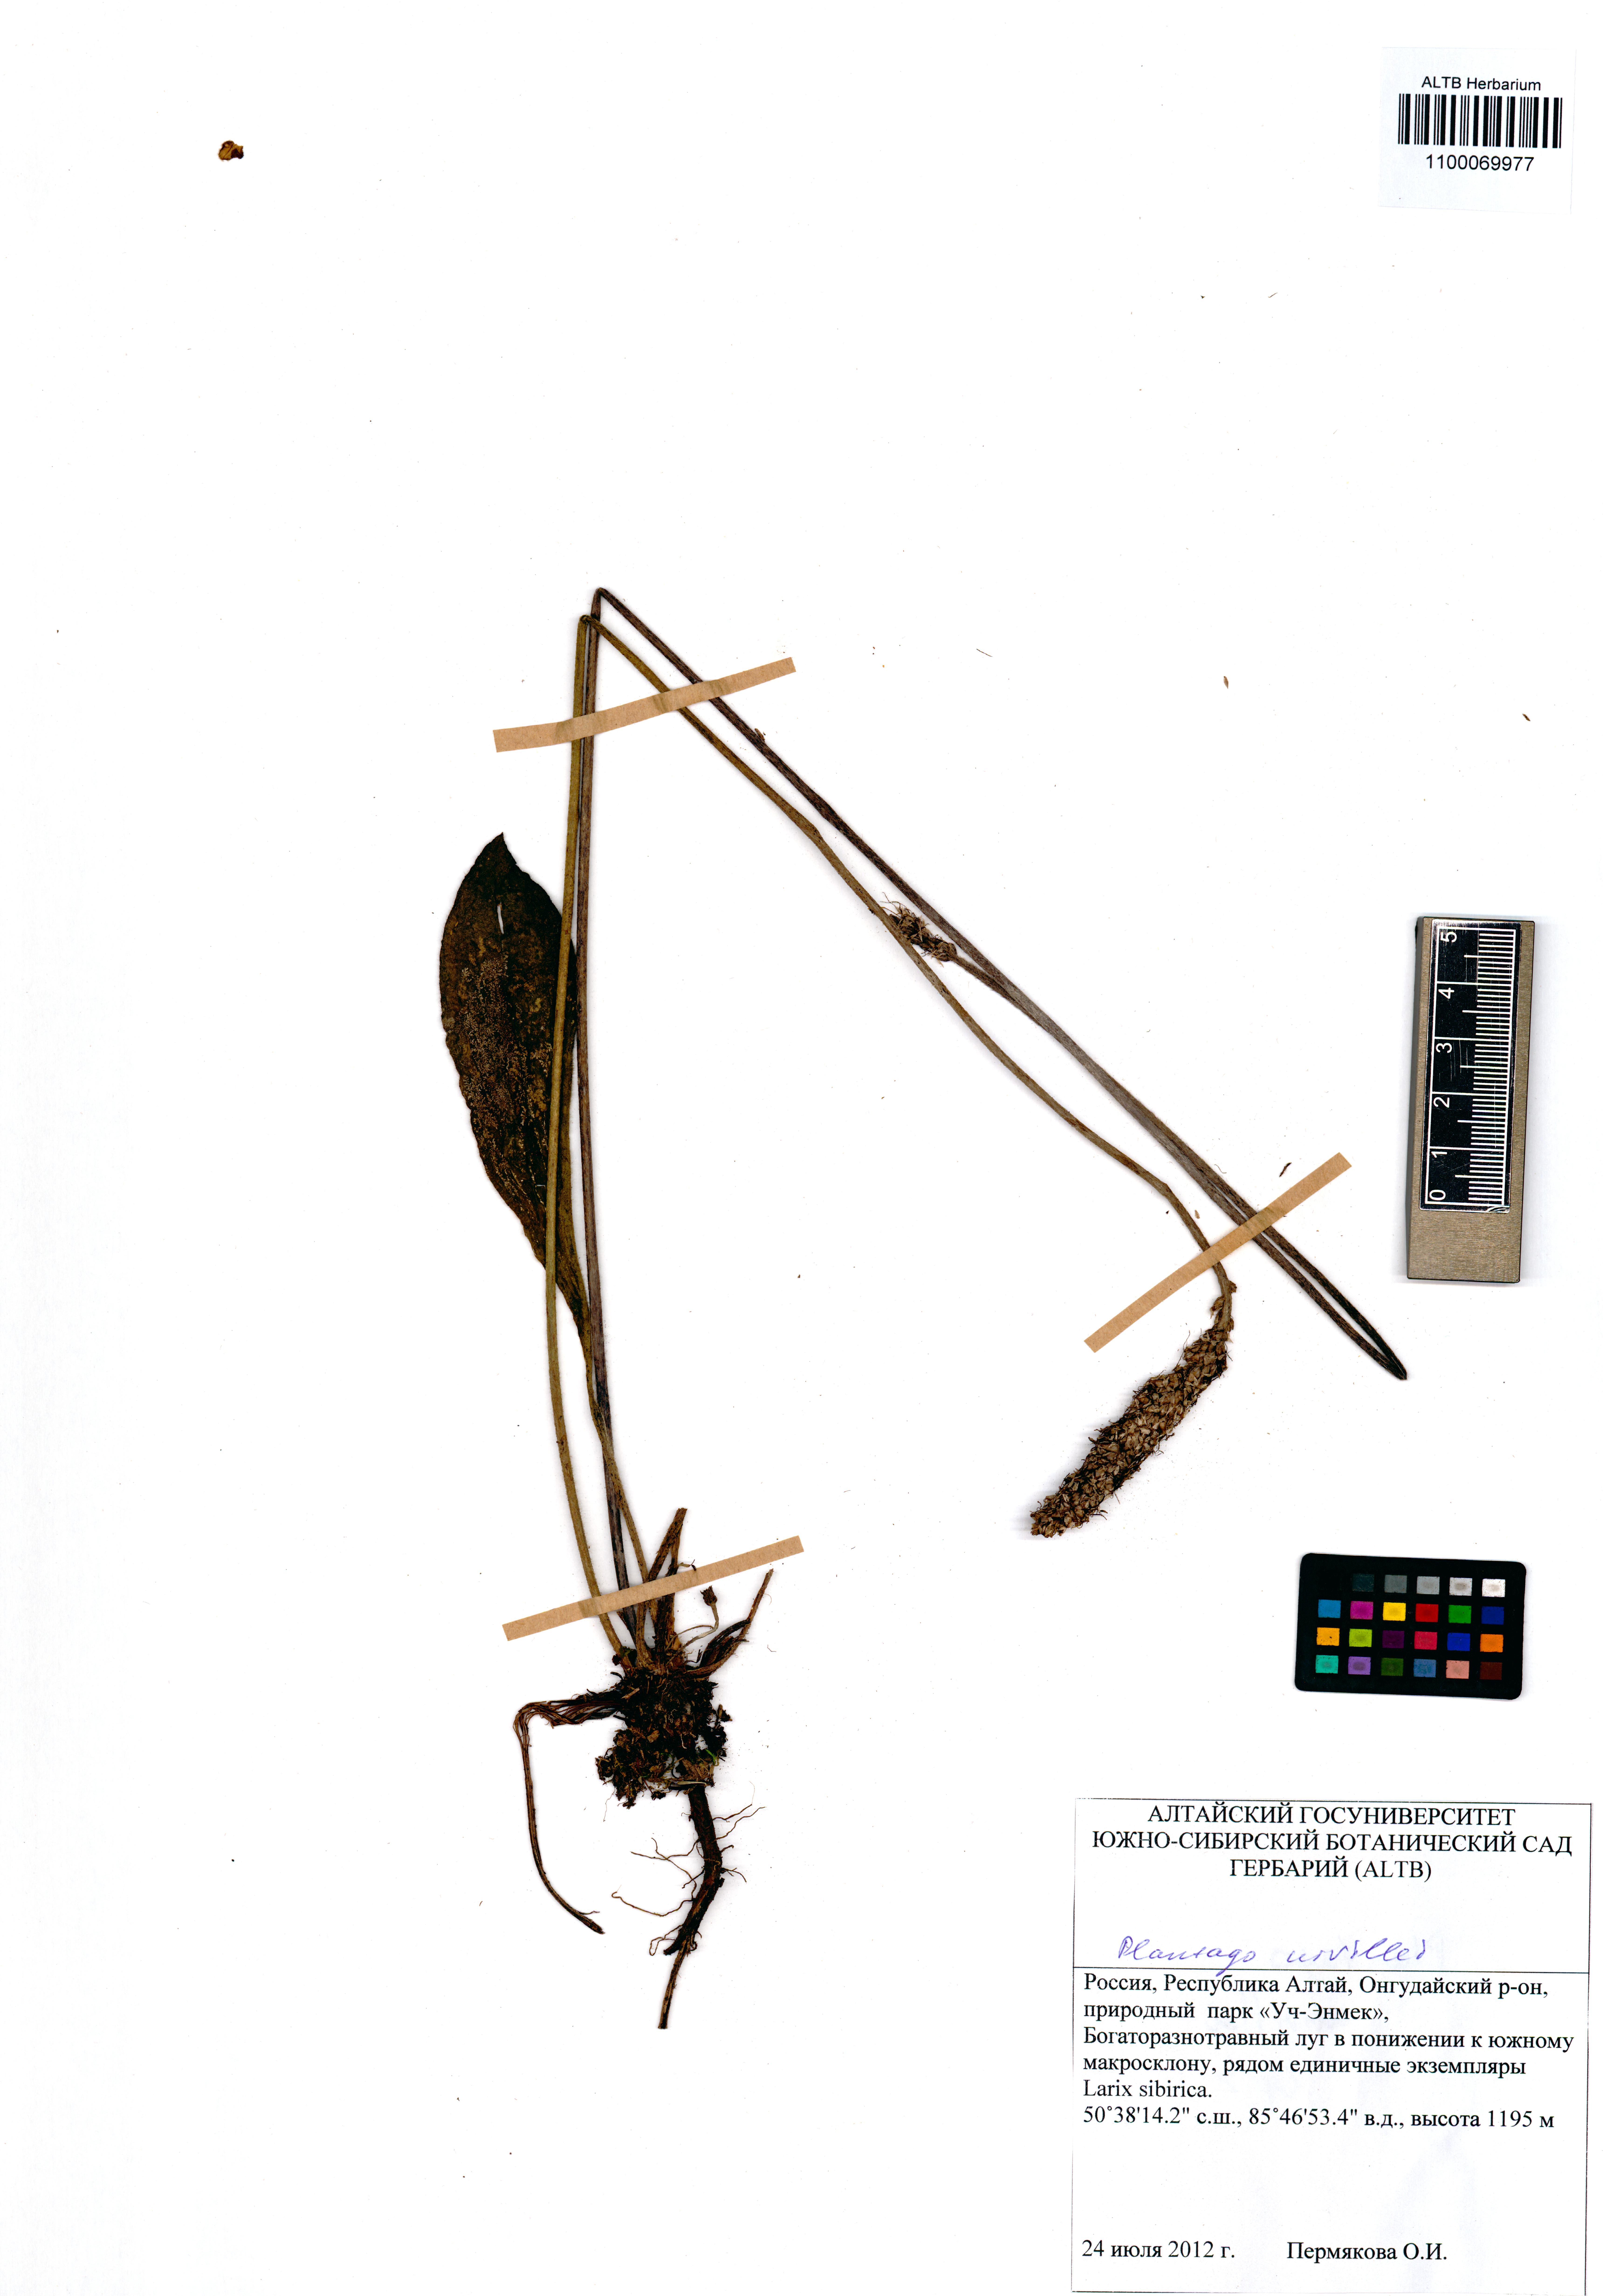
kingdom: Plantae
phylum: Tracheophyta
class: Magnoliopsida
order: Lamiales
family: Plantaginaceae
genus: Plantago
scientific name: Plantago urvillei
